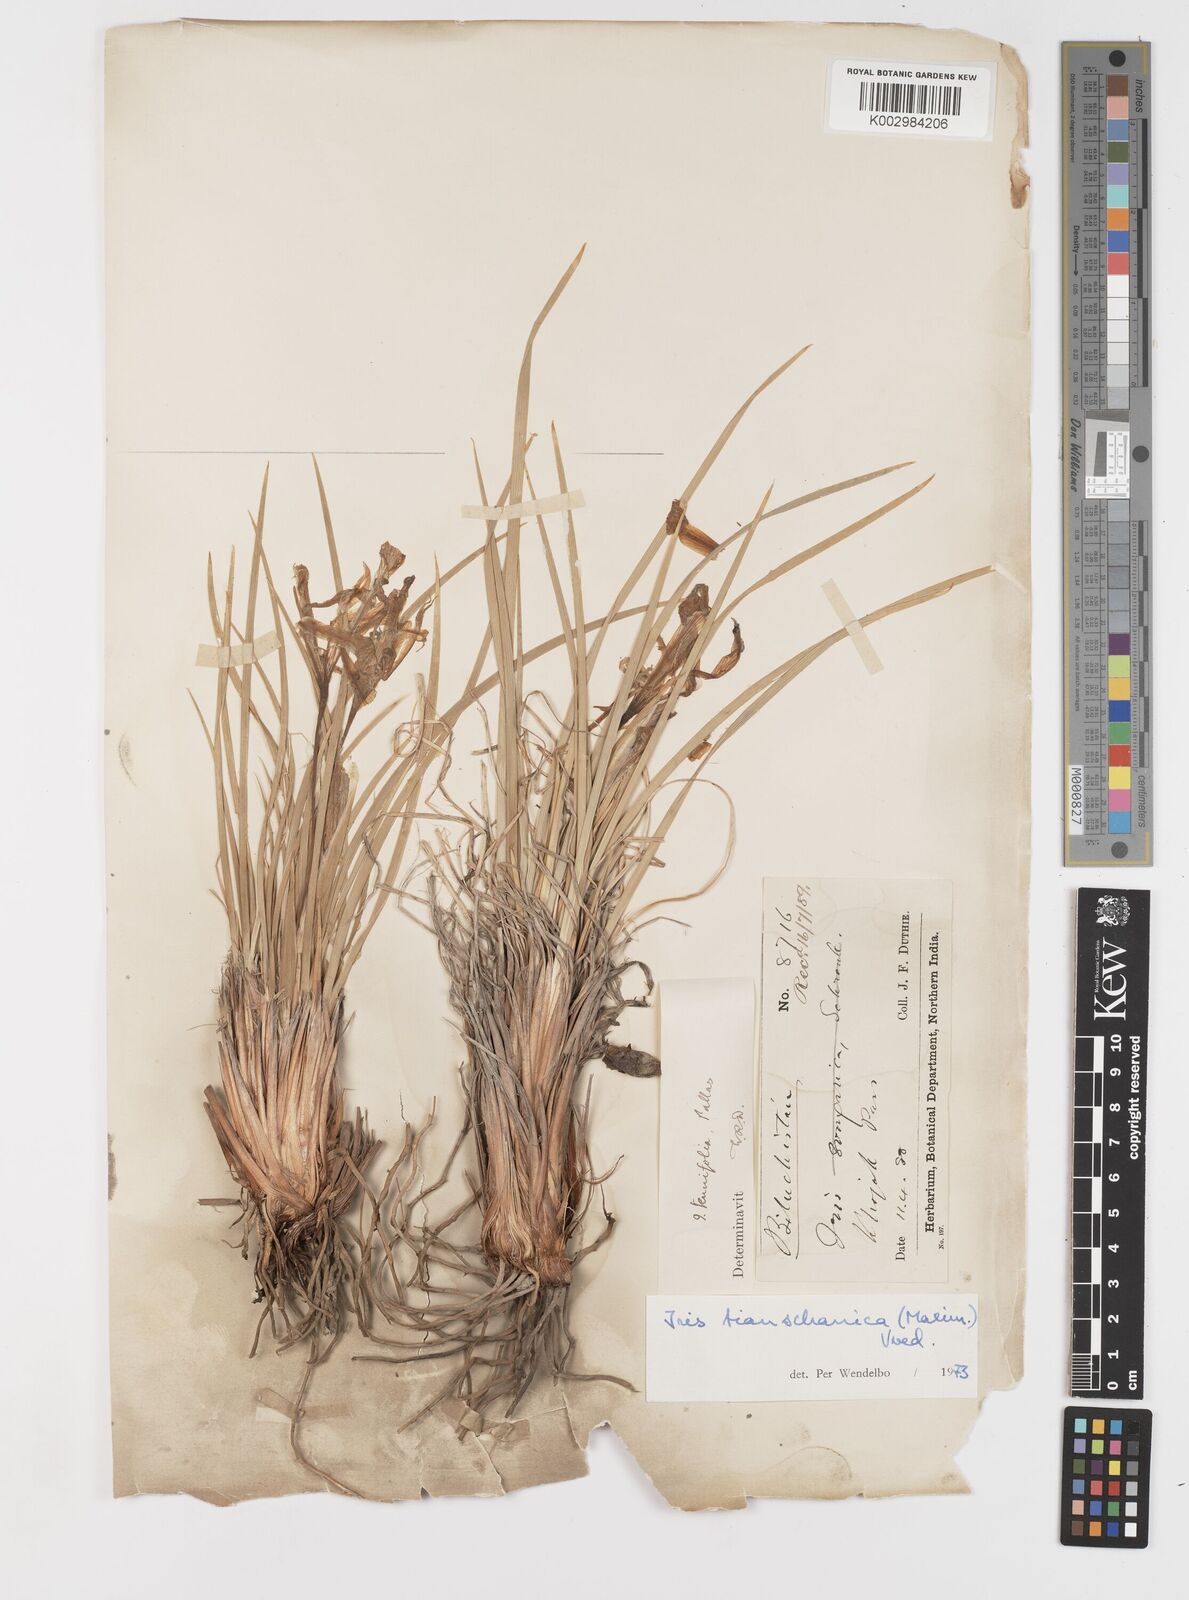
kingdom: Plantae
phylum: Tracheophyta
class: Liliopsida
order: Asparagales
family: Iridaceae
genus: Iris
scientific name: Iris loczyi
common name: Tian shan mountain iris
